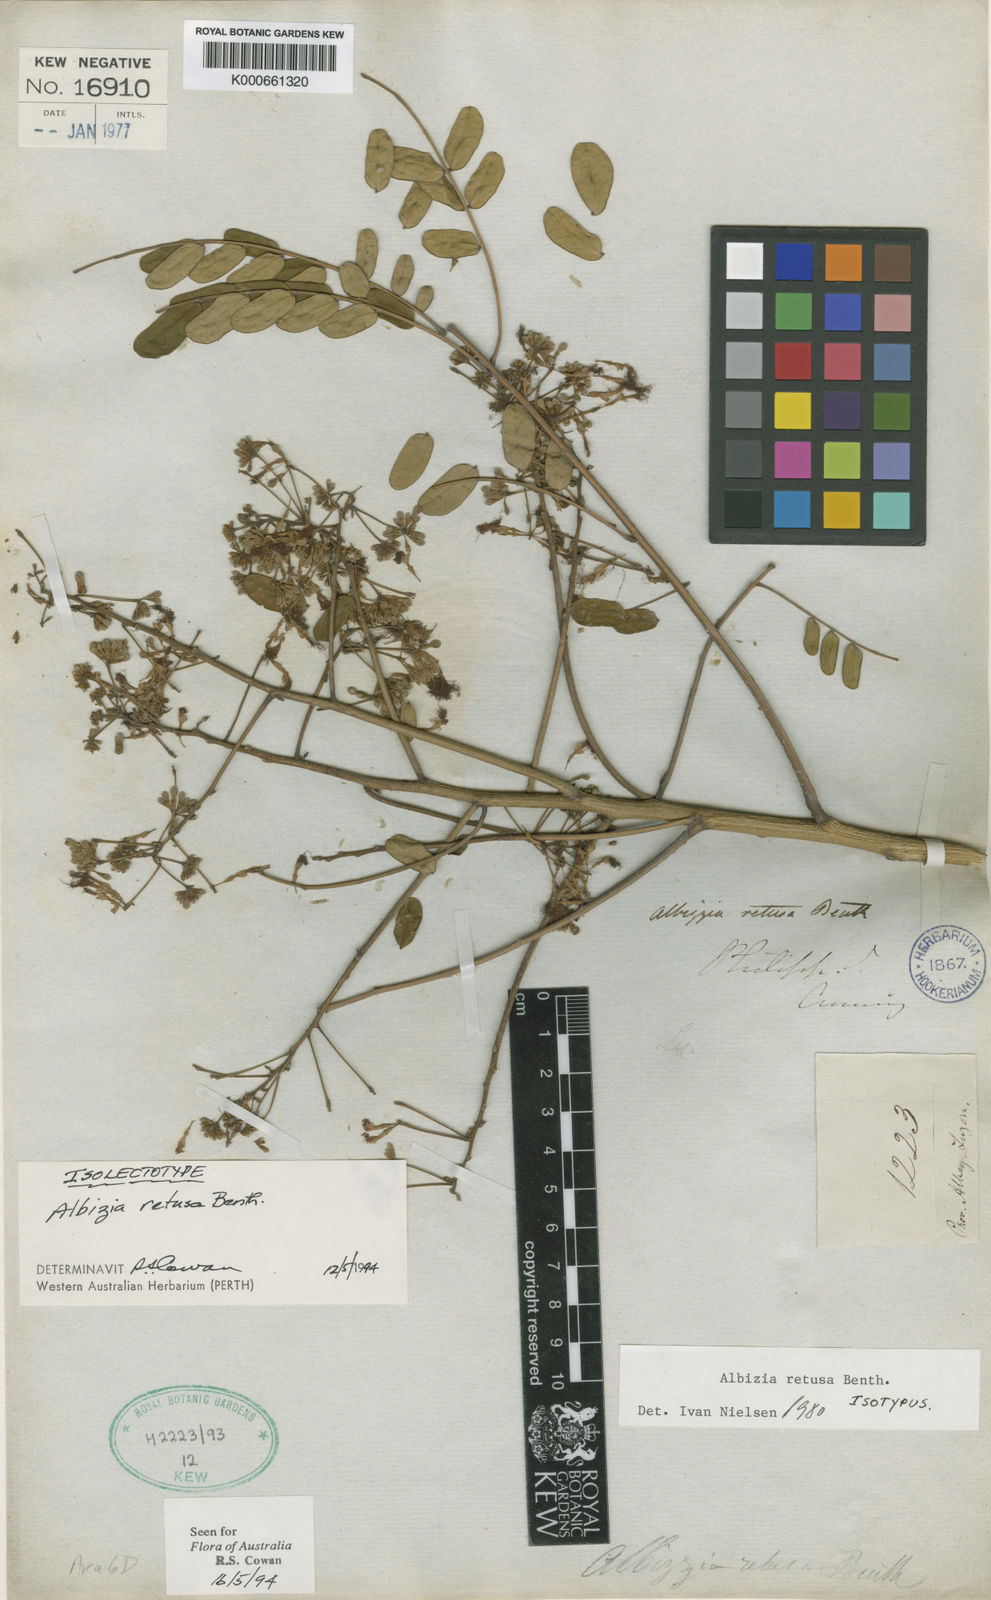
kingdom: Plantae
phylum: Tracheophyta
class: Magnoliopsida
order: Fabales
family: Fabaceae
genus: Albizia
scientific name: Albizia retusa
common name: Sea albizia
